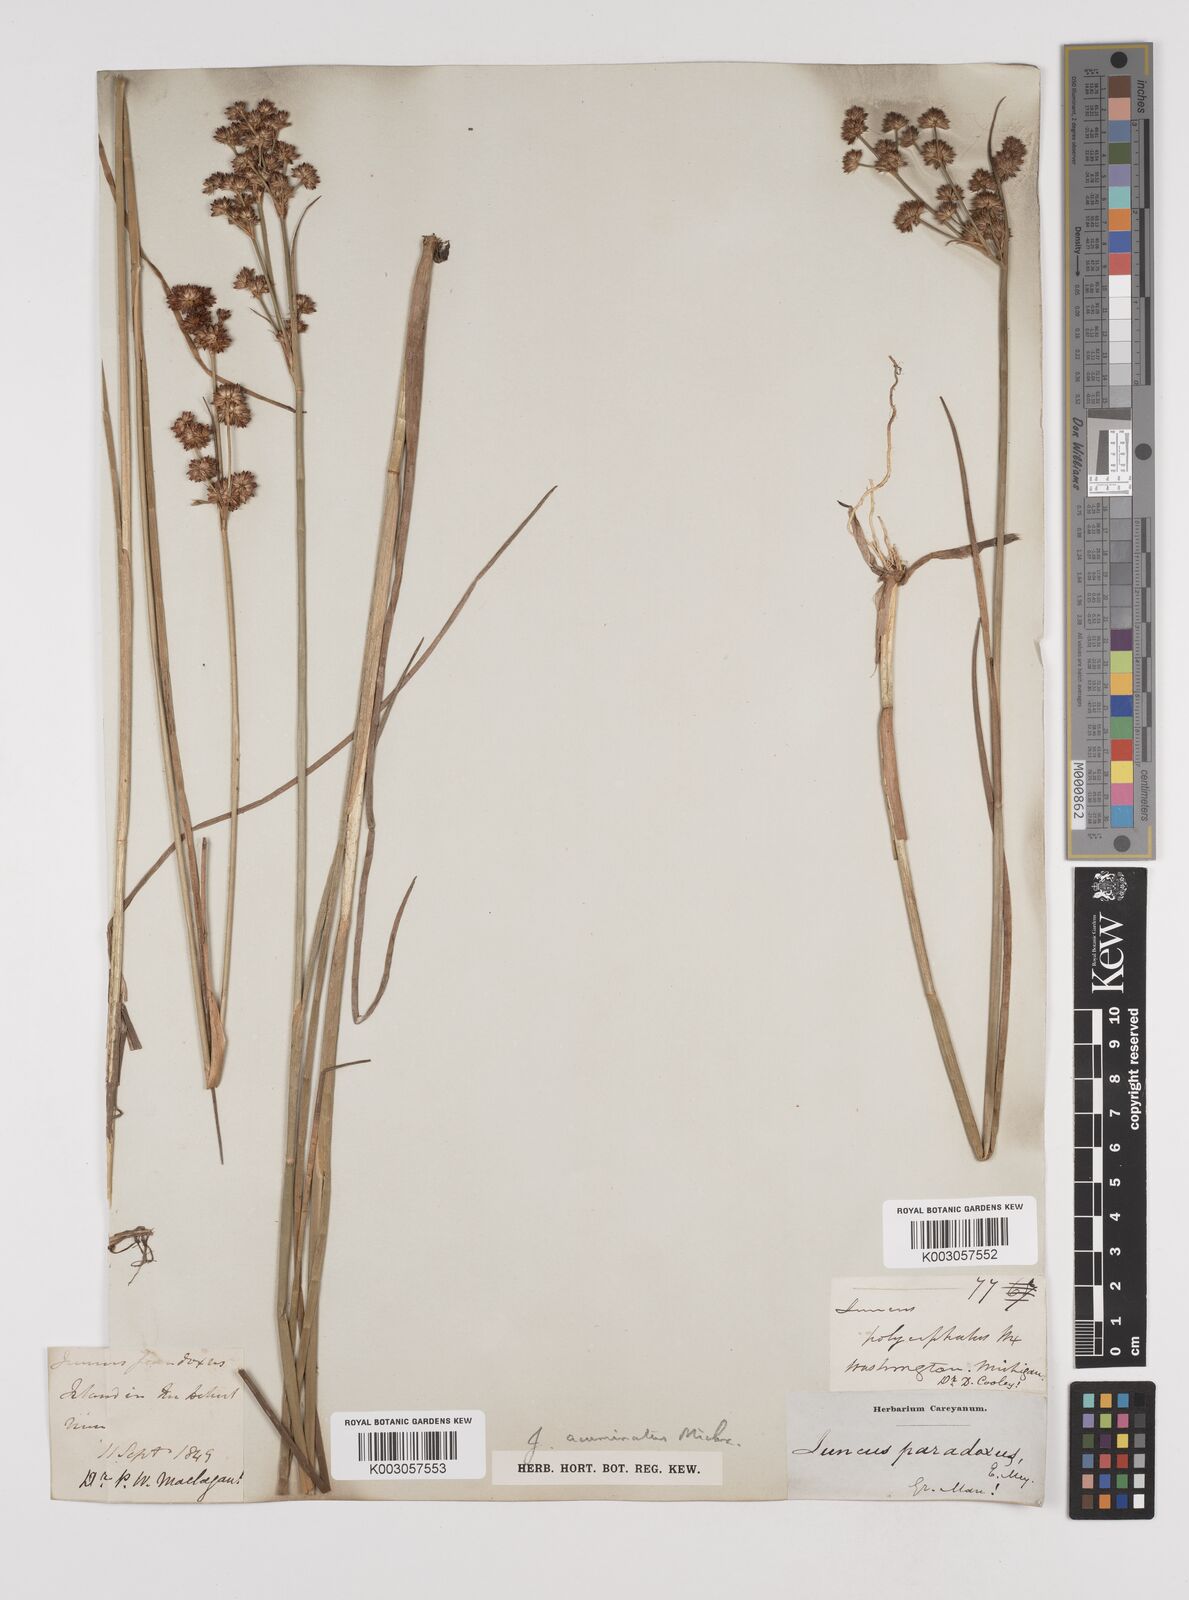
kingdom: Plantae
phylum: Tracheophyta
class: Liliopsida
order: Poales
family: Juncaceae
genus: Juncus
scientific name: Juncus acuminatus
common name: Knotty-leaved rush
